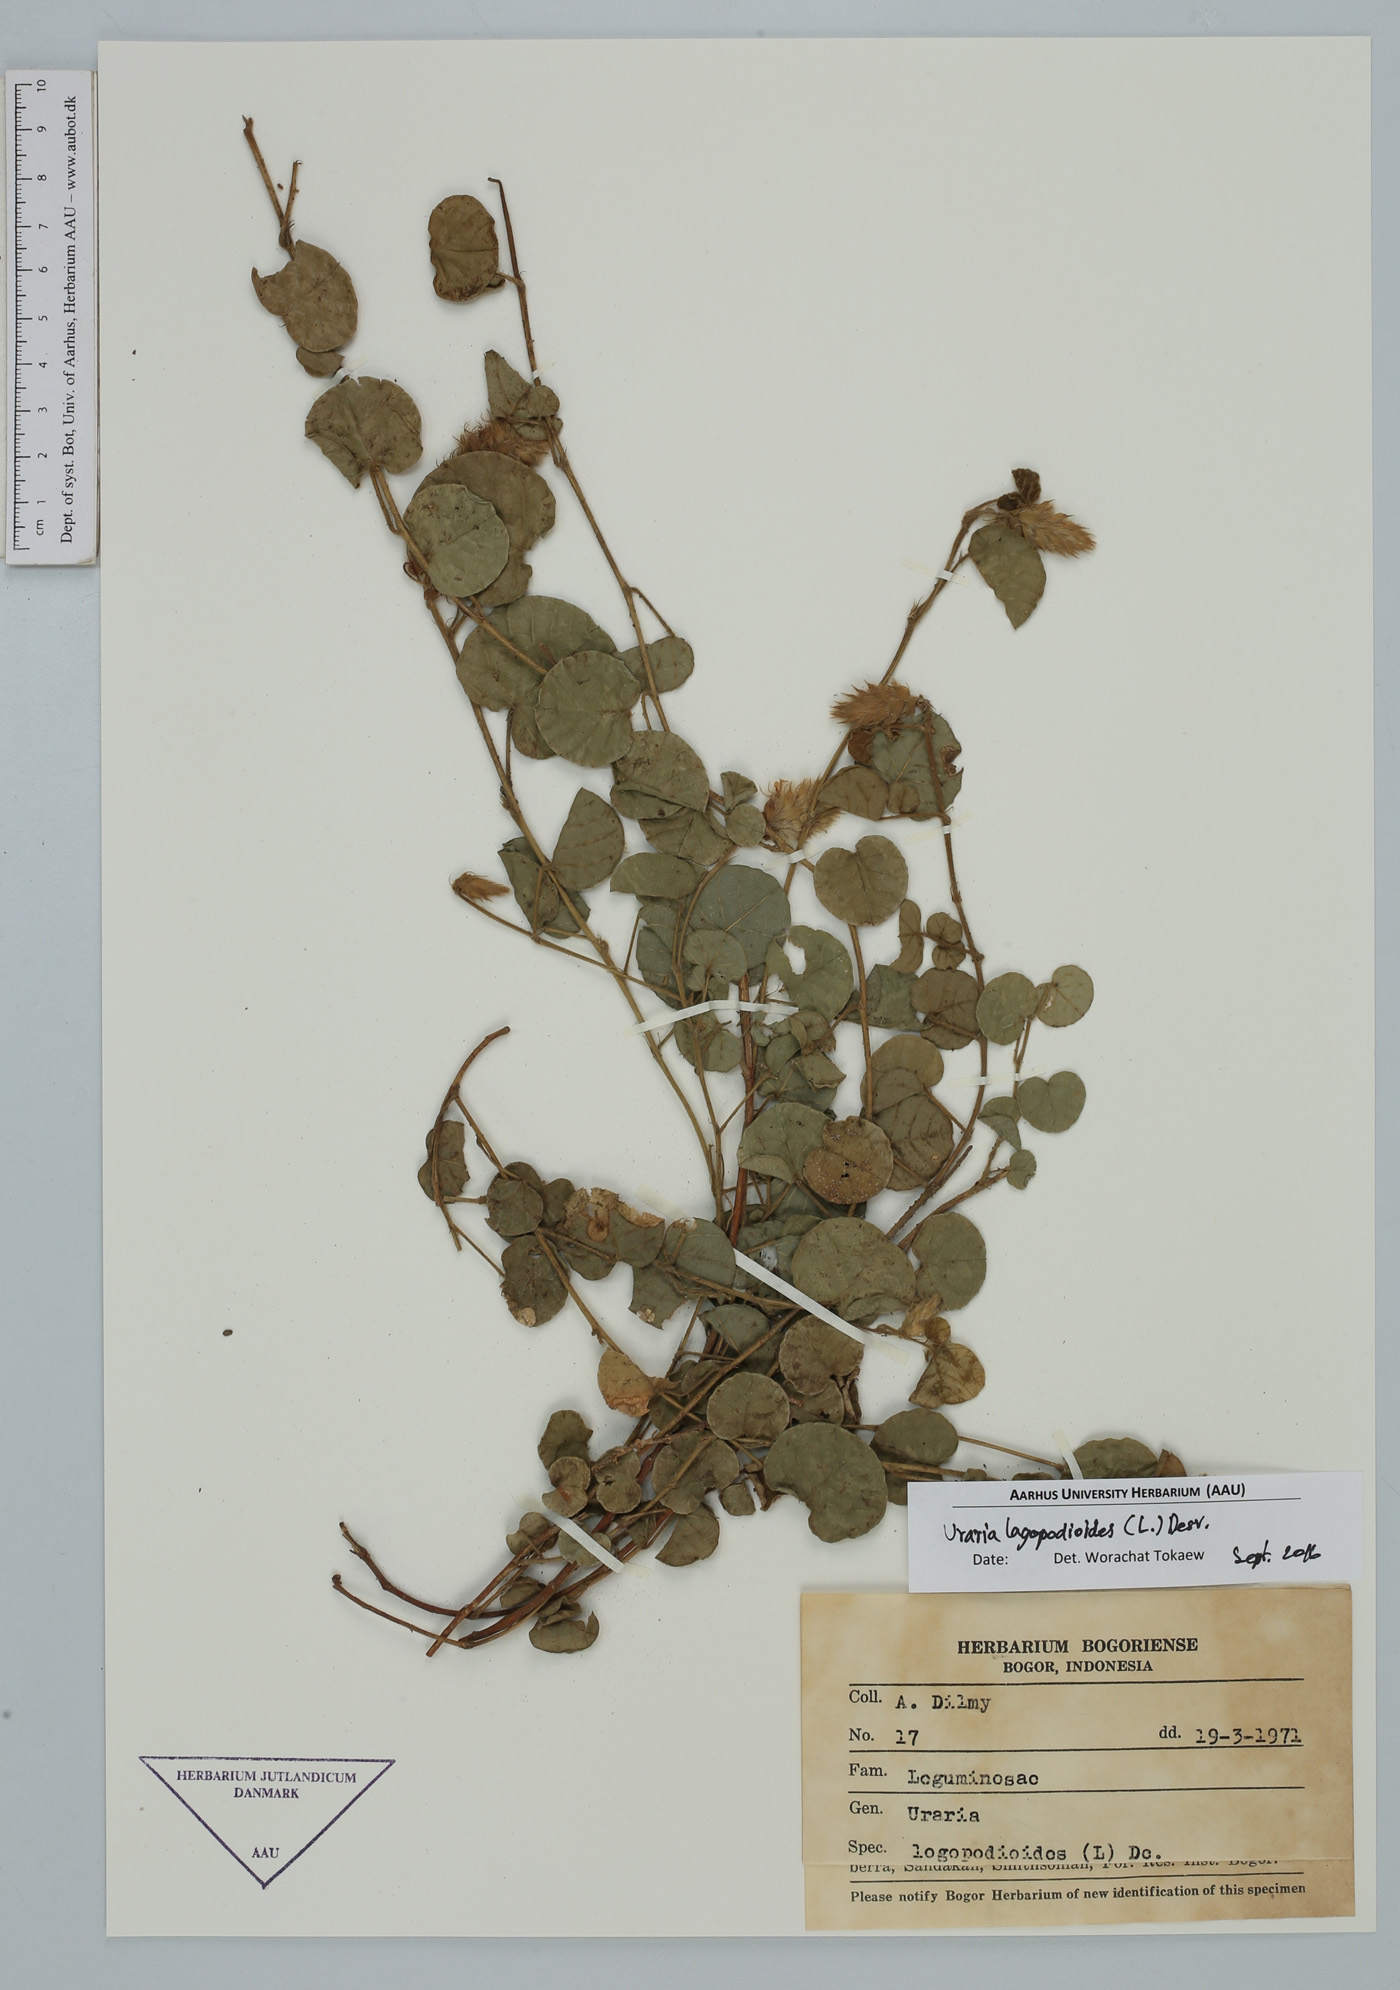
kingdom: Plantae
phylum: Tracheophyta
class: Magnoliopsida
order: Fabales
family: Fabaceae
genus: Uraria
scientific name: Uraria lagopodioides
